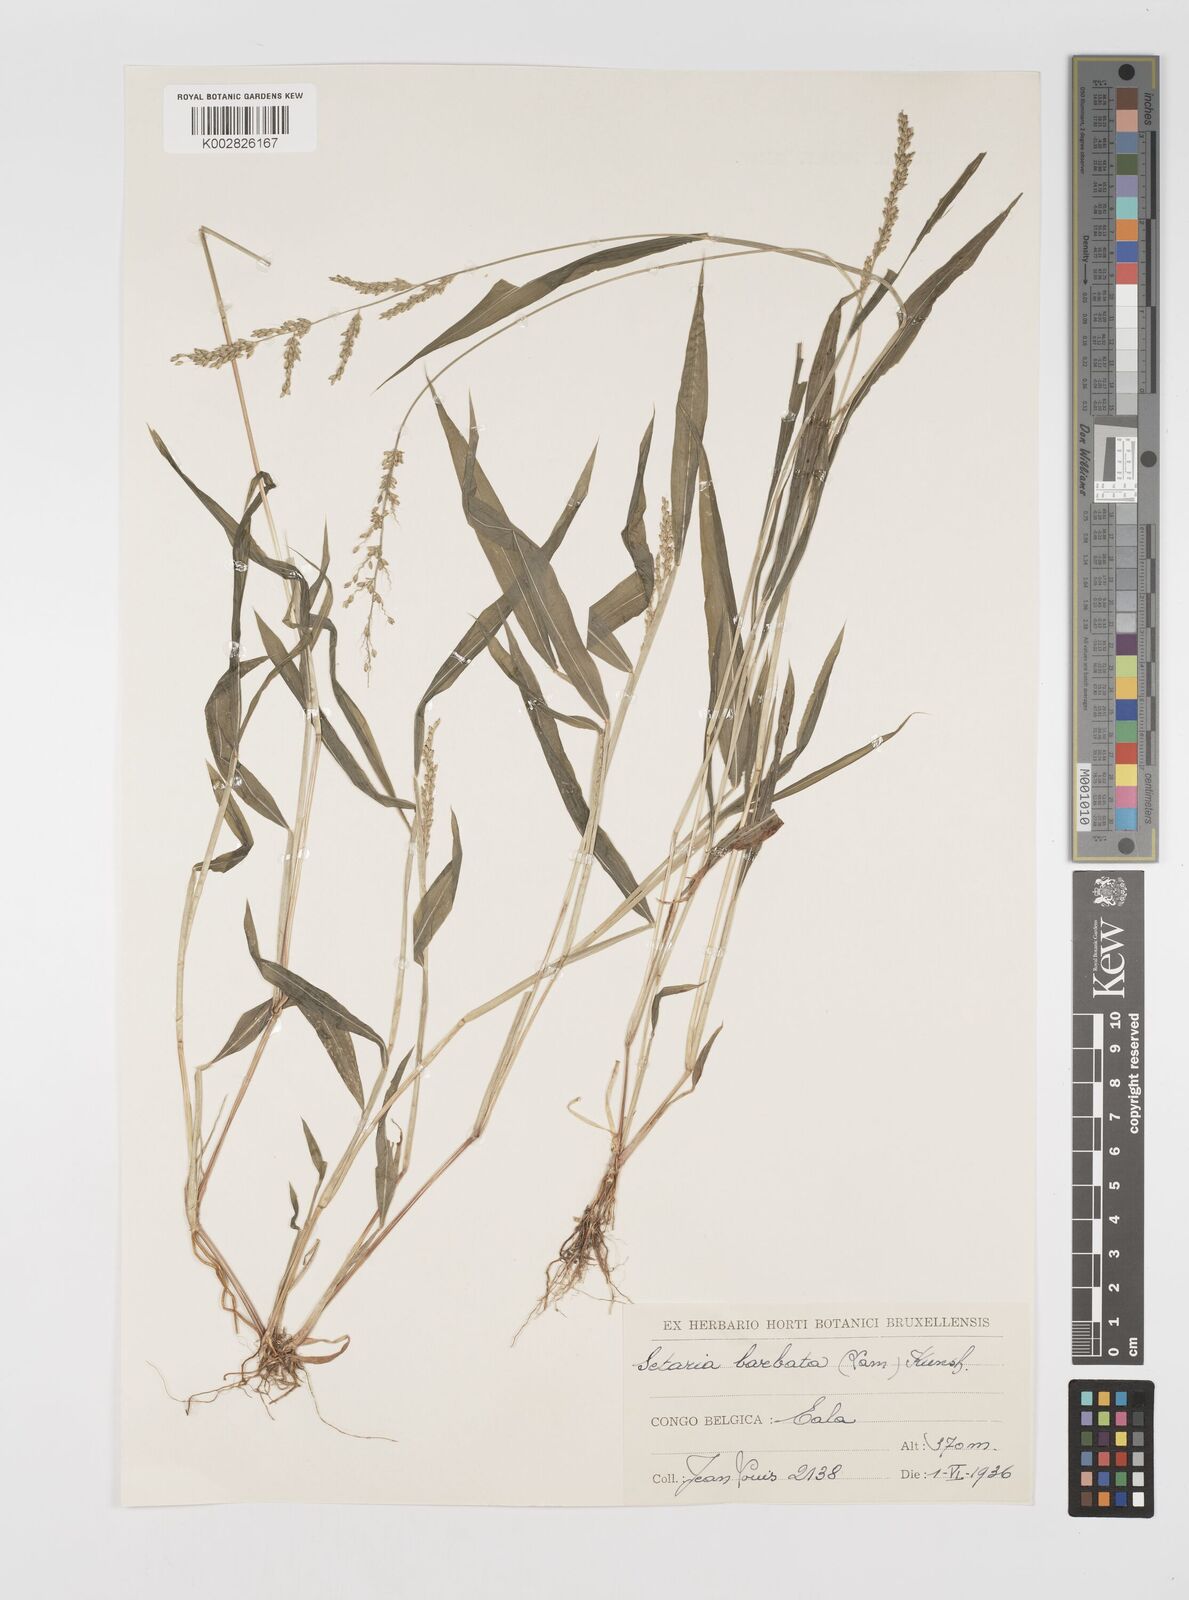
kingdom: Plantae
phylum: Tracheophyta
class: Liliopsida
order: Poales
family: Poaceae
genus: Setaria
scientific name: Setaria barbata
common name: East indian bristlegrass
